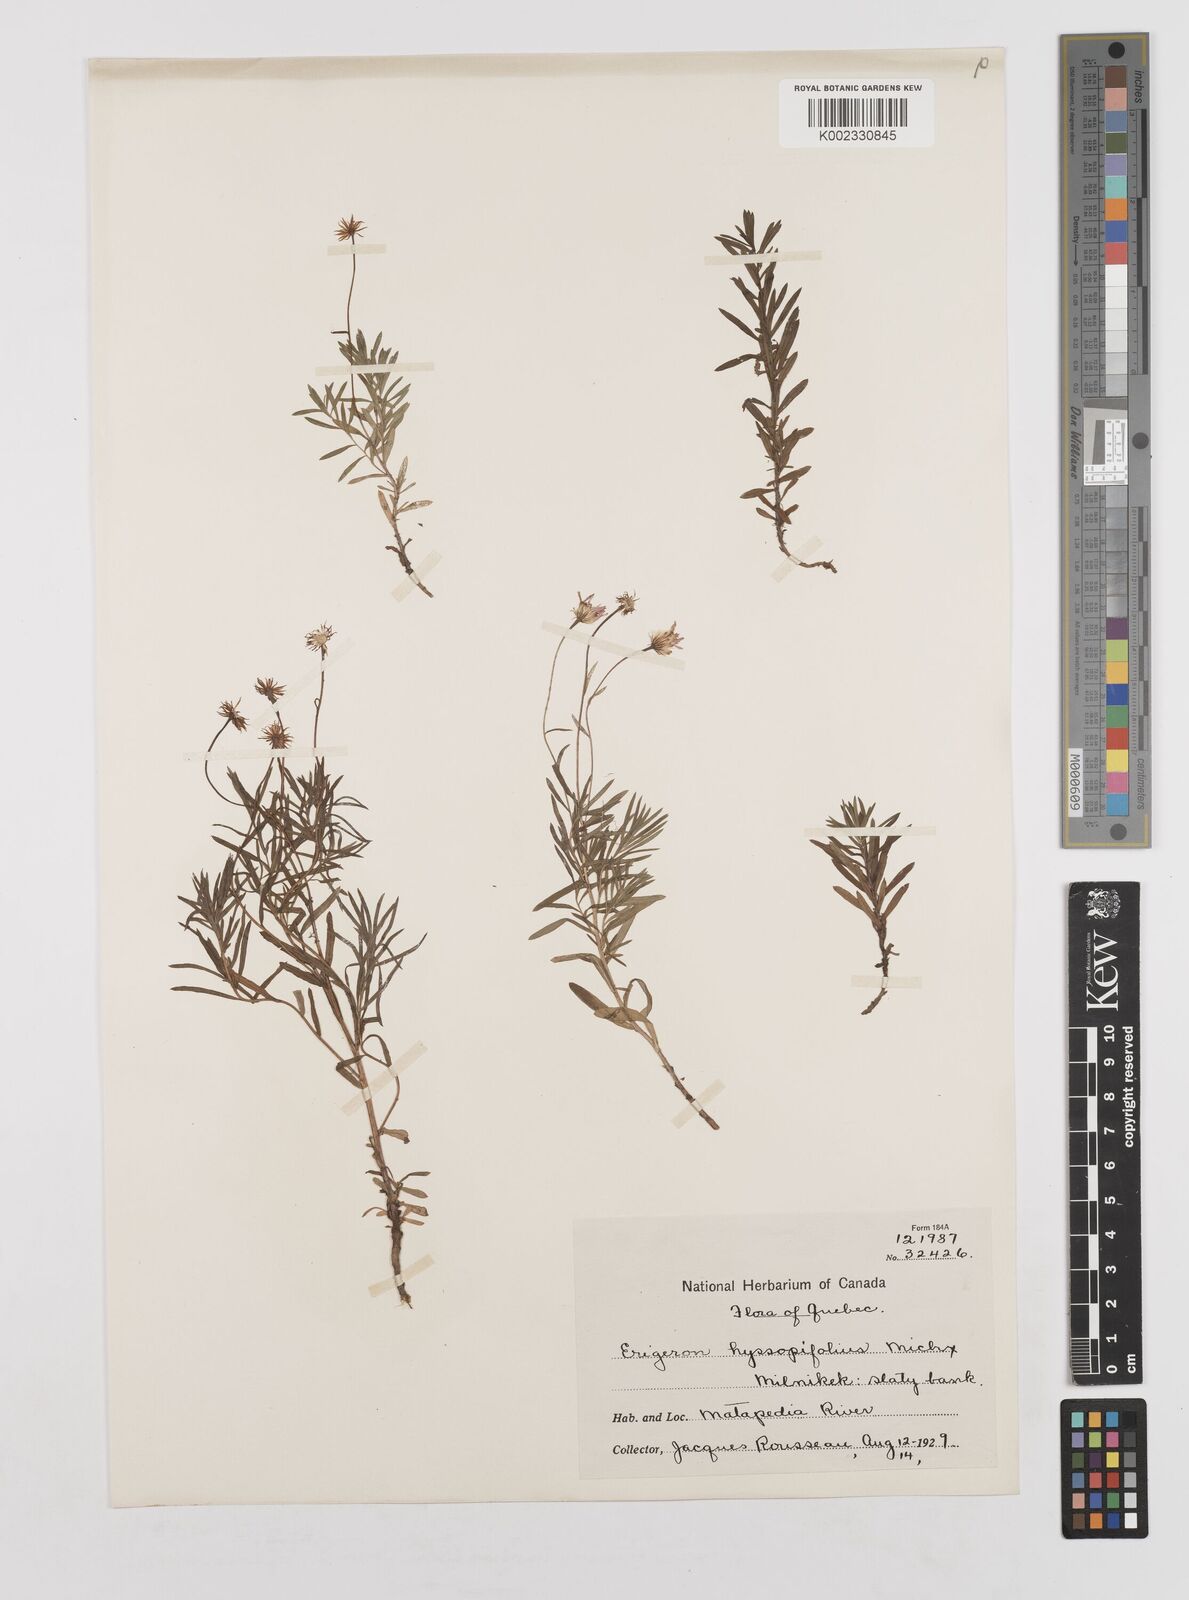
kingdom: Plantae
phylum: Tracheophyta
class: Magnoliopsida
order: Asterales
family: Asteraceae
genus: Erigeron
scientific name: Erigeron hyssopifolius
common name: Daisy fleabane
